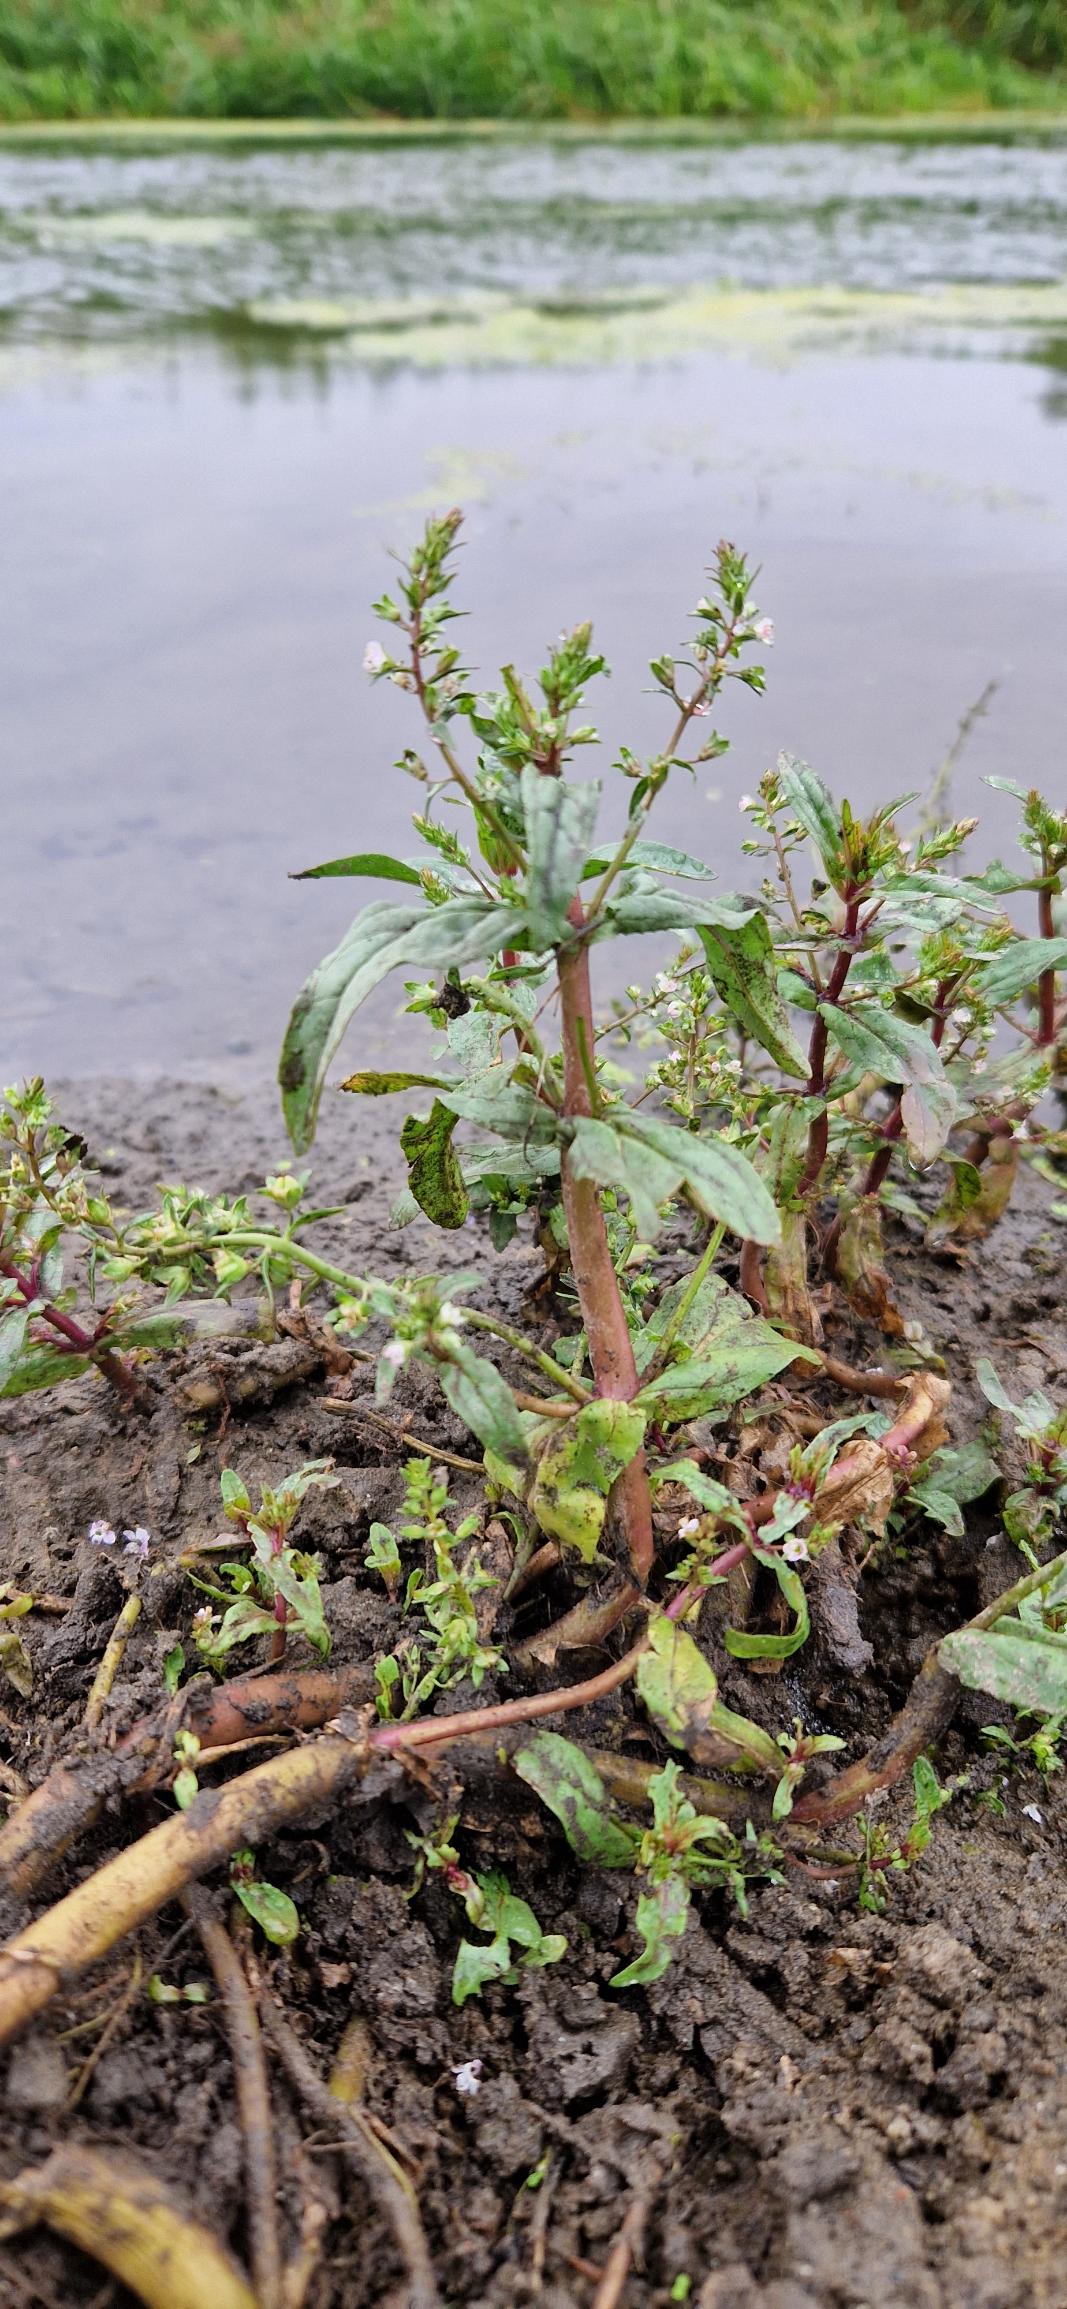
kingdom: Plantae
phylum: Tracheophyta
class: Magnoliopsida
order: Lamiales
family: Plantaginaceae
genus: Veronica
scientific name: Veronica catenata
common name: Vand-ærenpris
